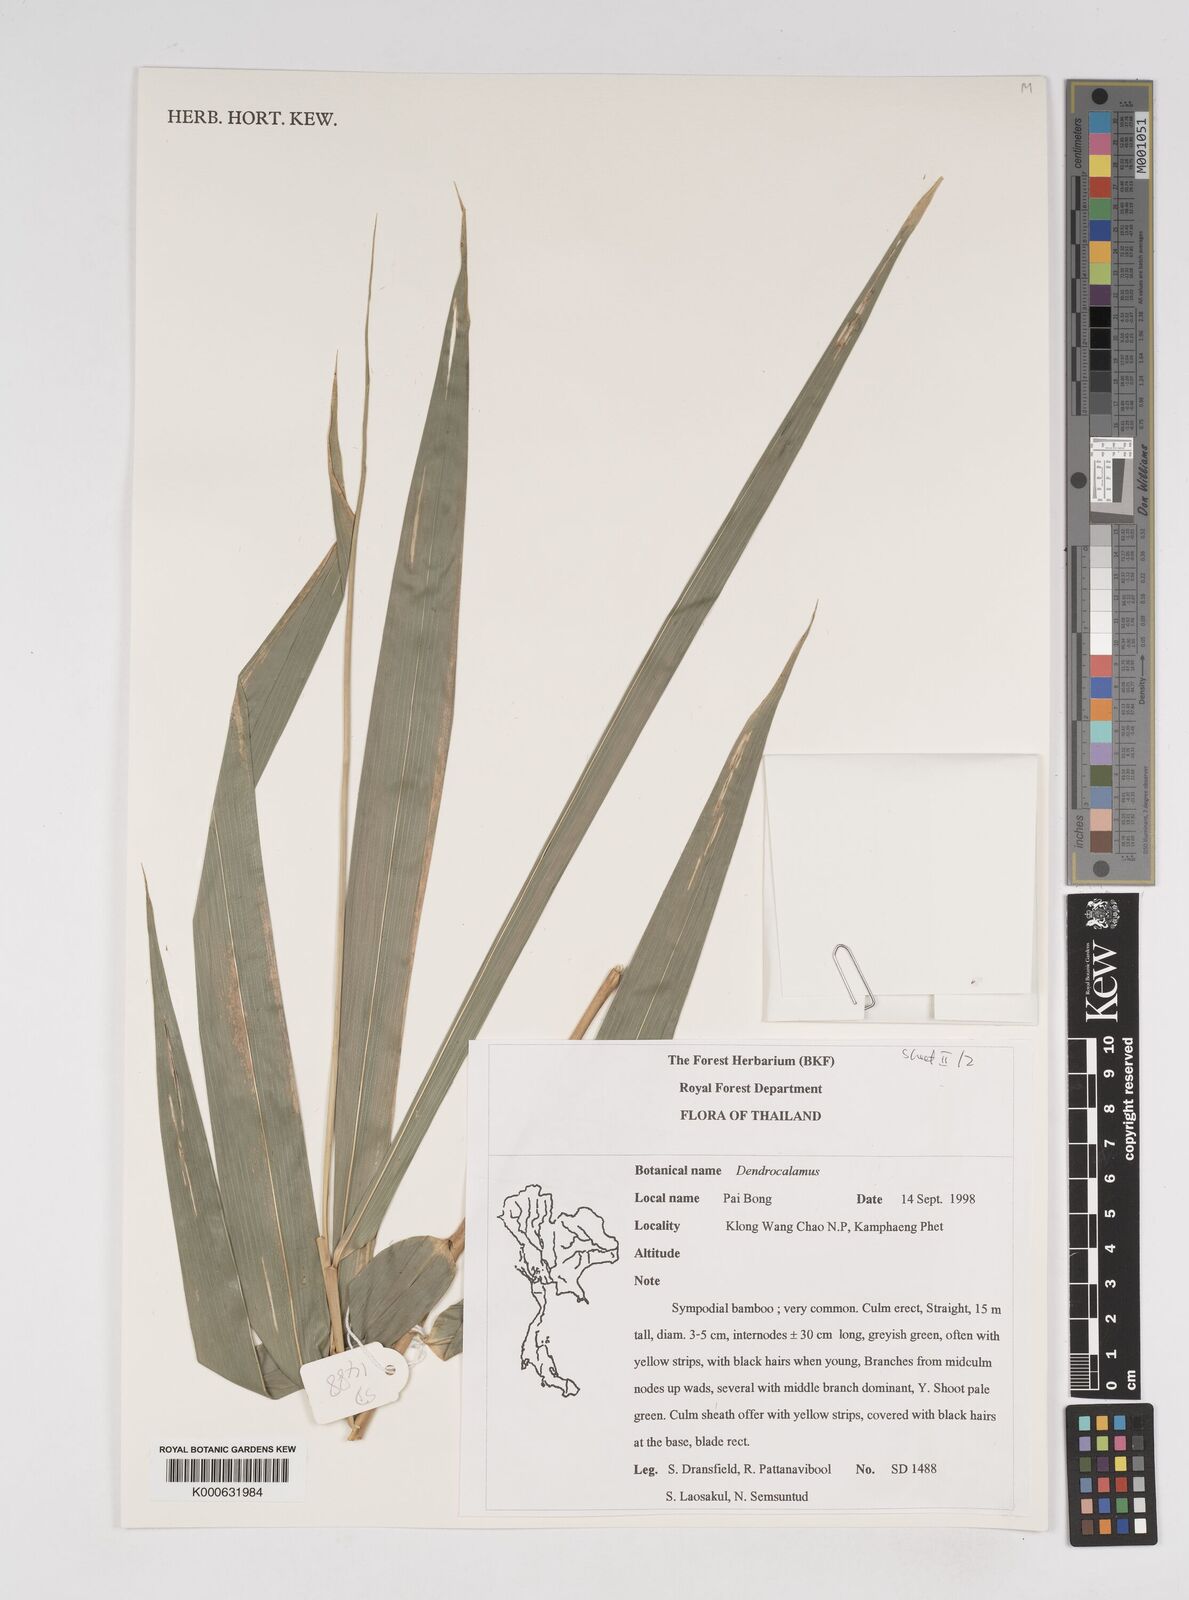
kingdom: Plantae
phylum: Tracheophyta
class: Liliopsida
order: Poales
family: Poaceae
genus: Dendrocalamus
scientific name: Dendrocalamus
